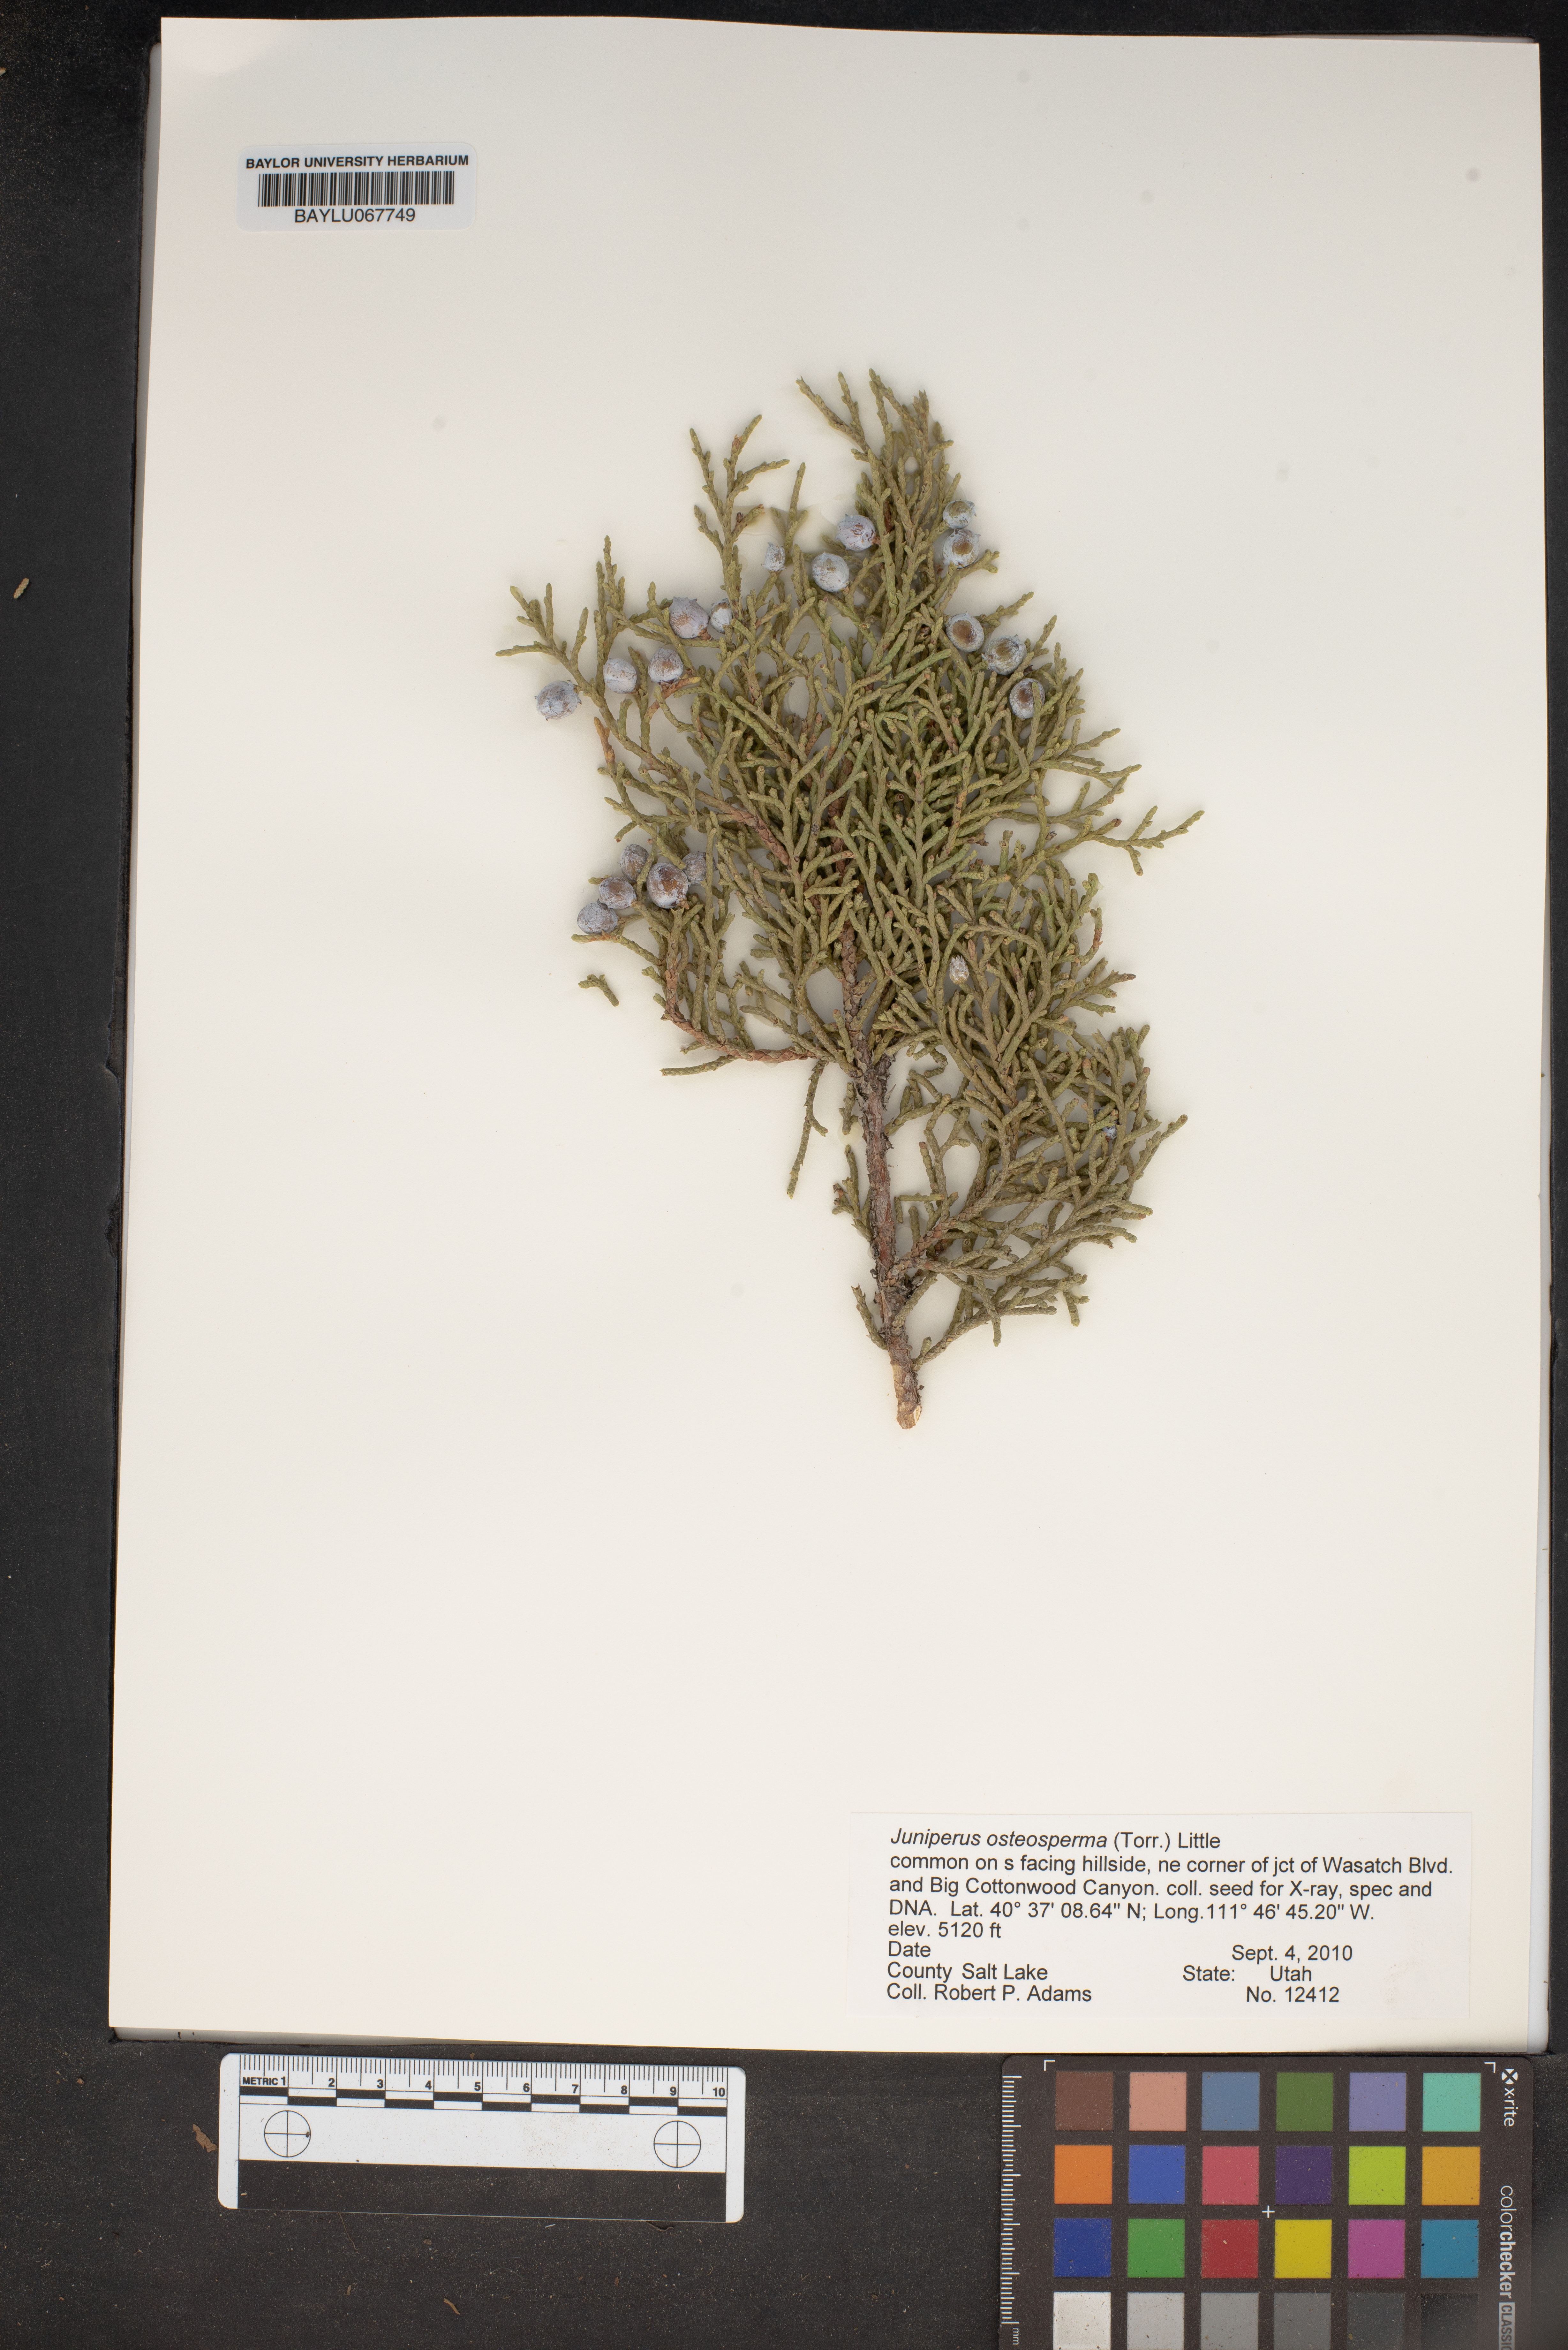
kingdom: Plantae
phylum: Tracheophyta
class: Pinopsida
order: Pinales
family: Cupressaceae
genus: Juniperus
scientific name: Juniperus osteosperma
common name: Utah juniper
